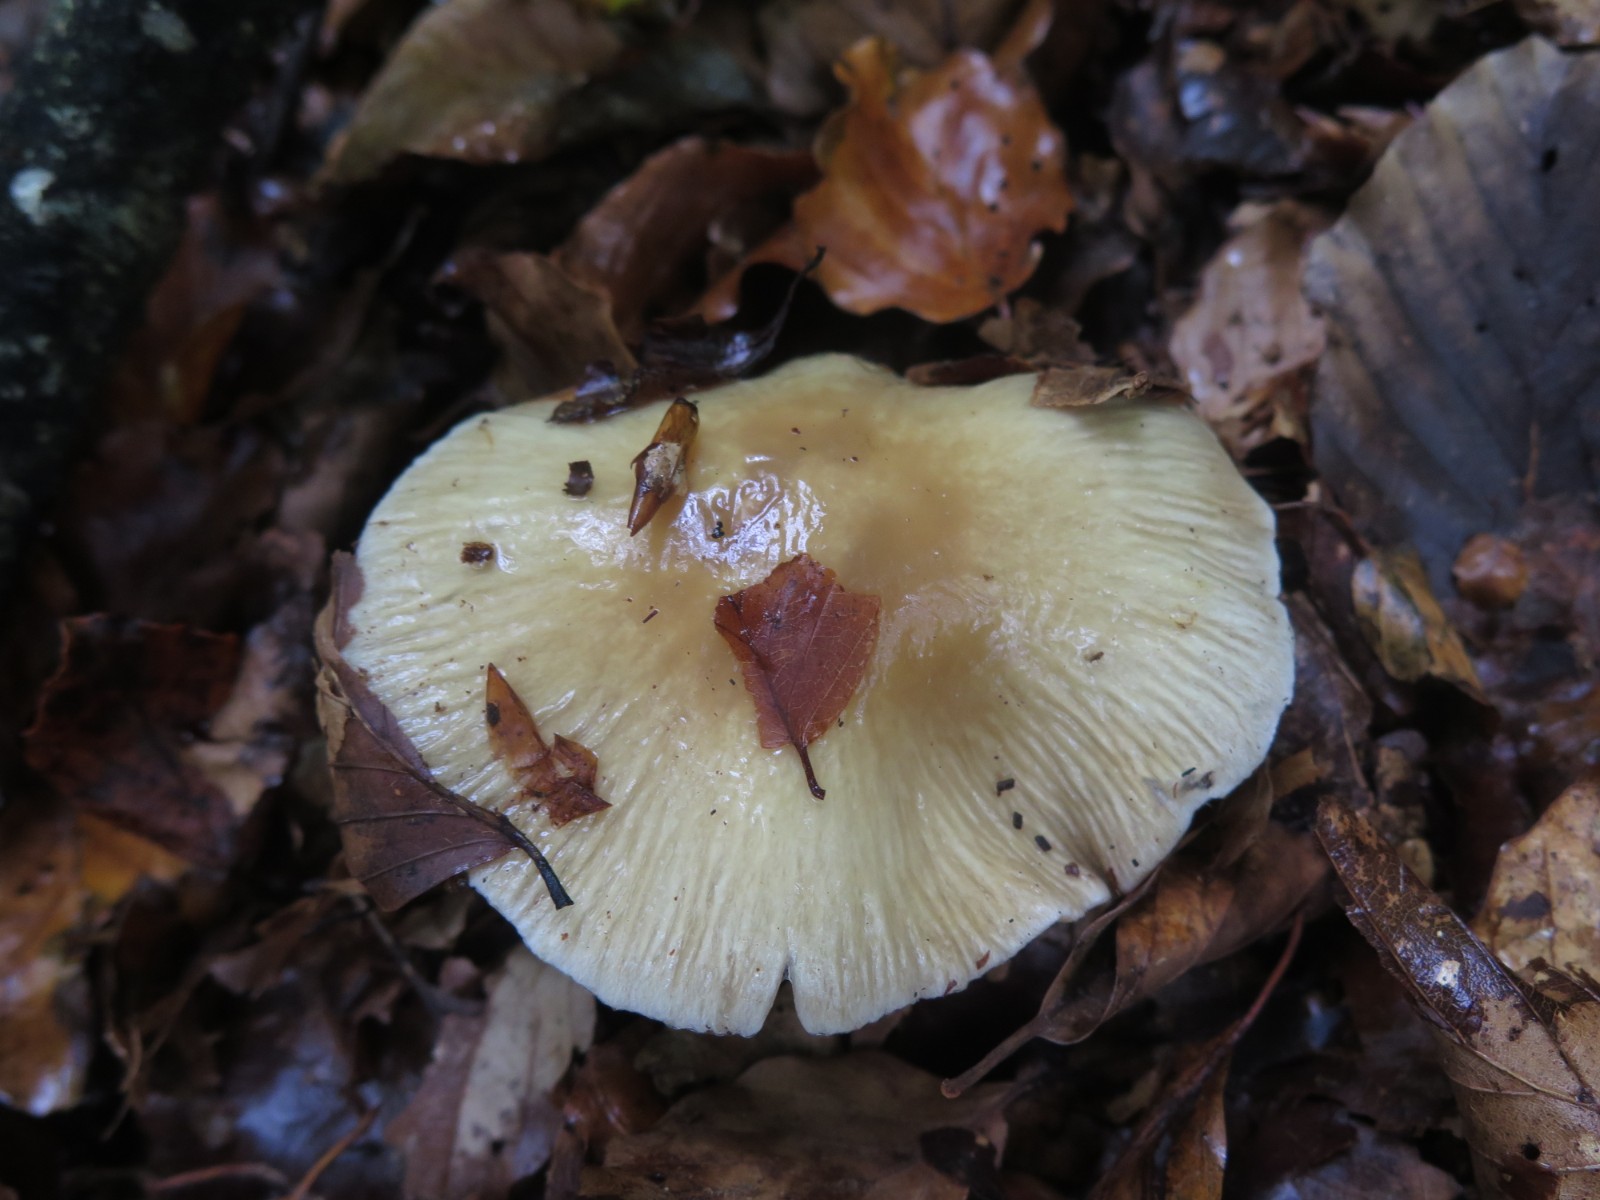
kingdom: Fungi
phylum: Basidiomycota
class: Agaricomycetes
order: Agaricales
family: Cortinariaceae
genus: Cortinarius
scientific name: Cortinarius elatior
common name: høj slørhat
